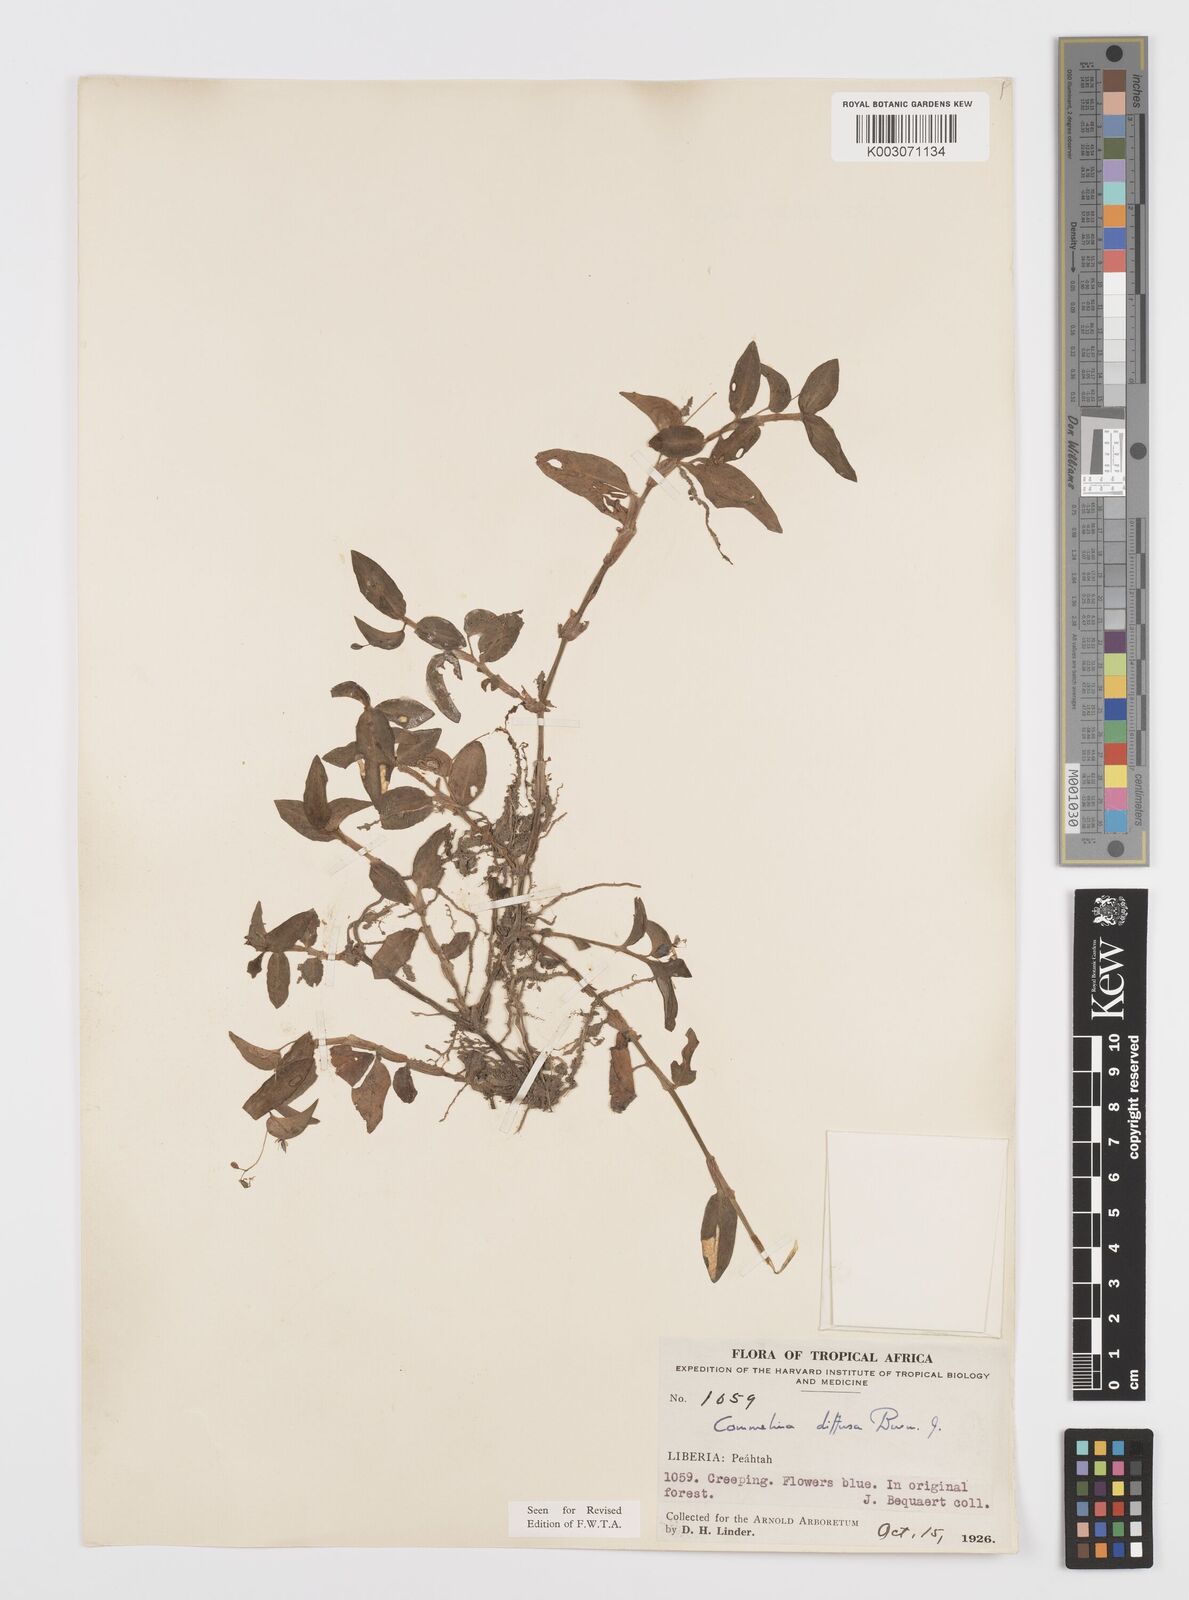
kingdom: Plantae
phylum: Tracheophyta
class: Liliopsida
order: Commelinales
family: Commelinaceae
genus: Commelina
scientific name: Commelina diffusa
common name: Climbing dayflower
